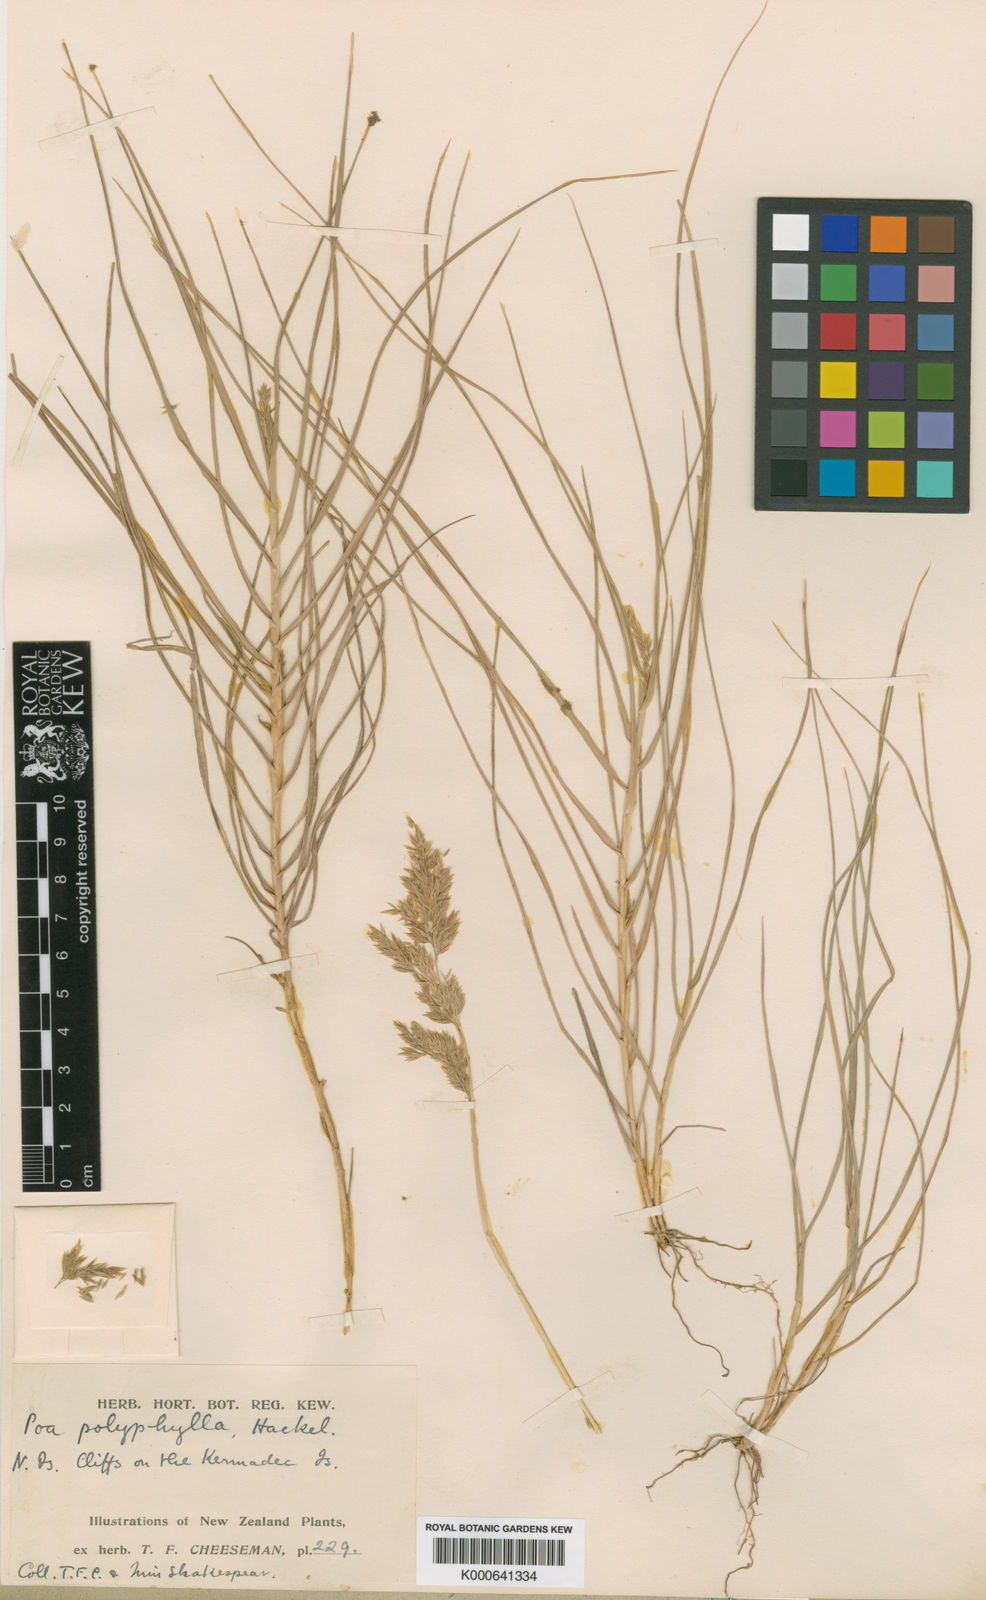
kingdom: Plantae
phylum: Tracheophyta
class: Liliopsida
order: Poales
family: Poaceae
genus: Poa
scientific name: Poa anceps
